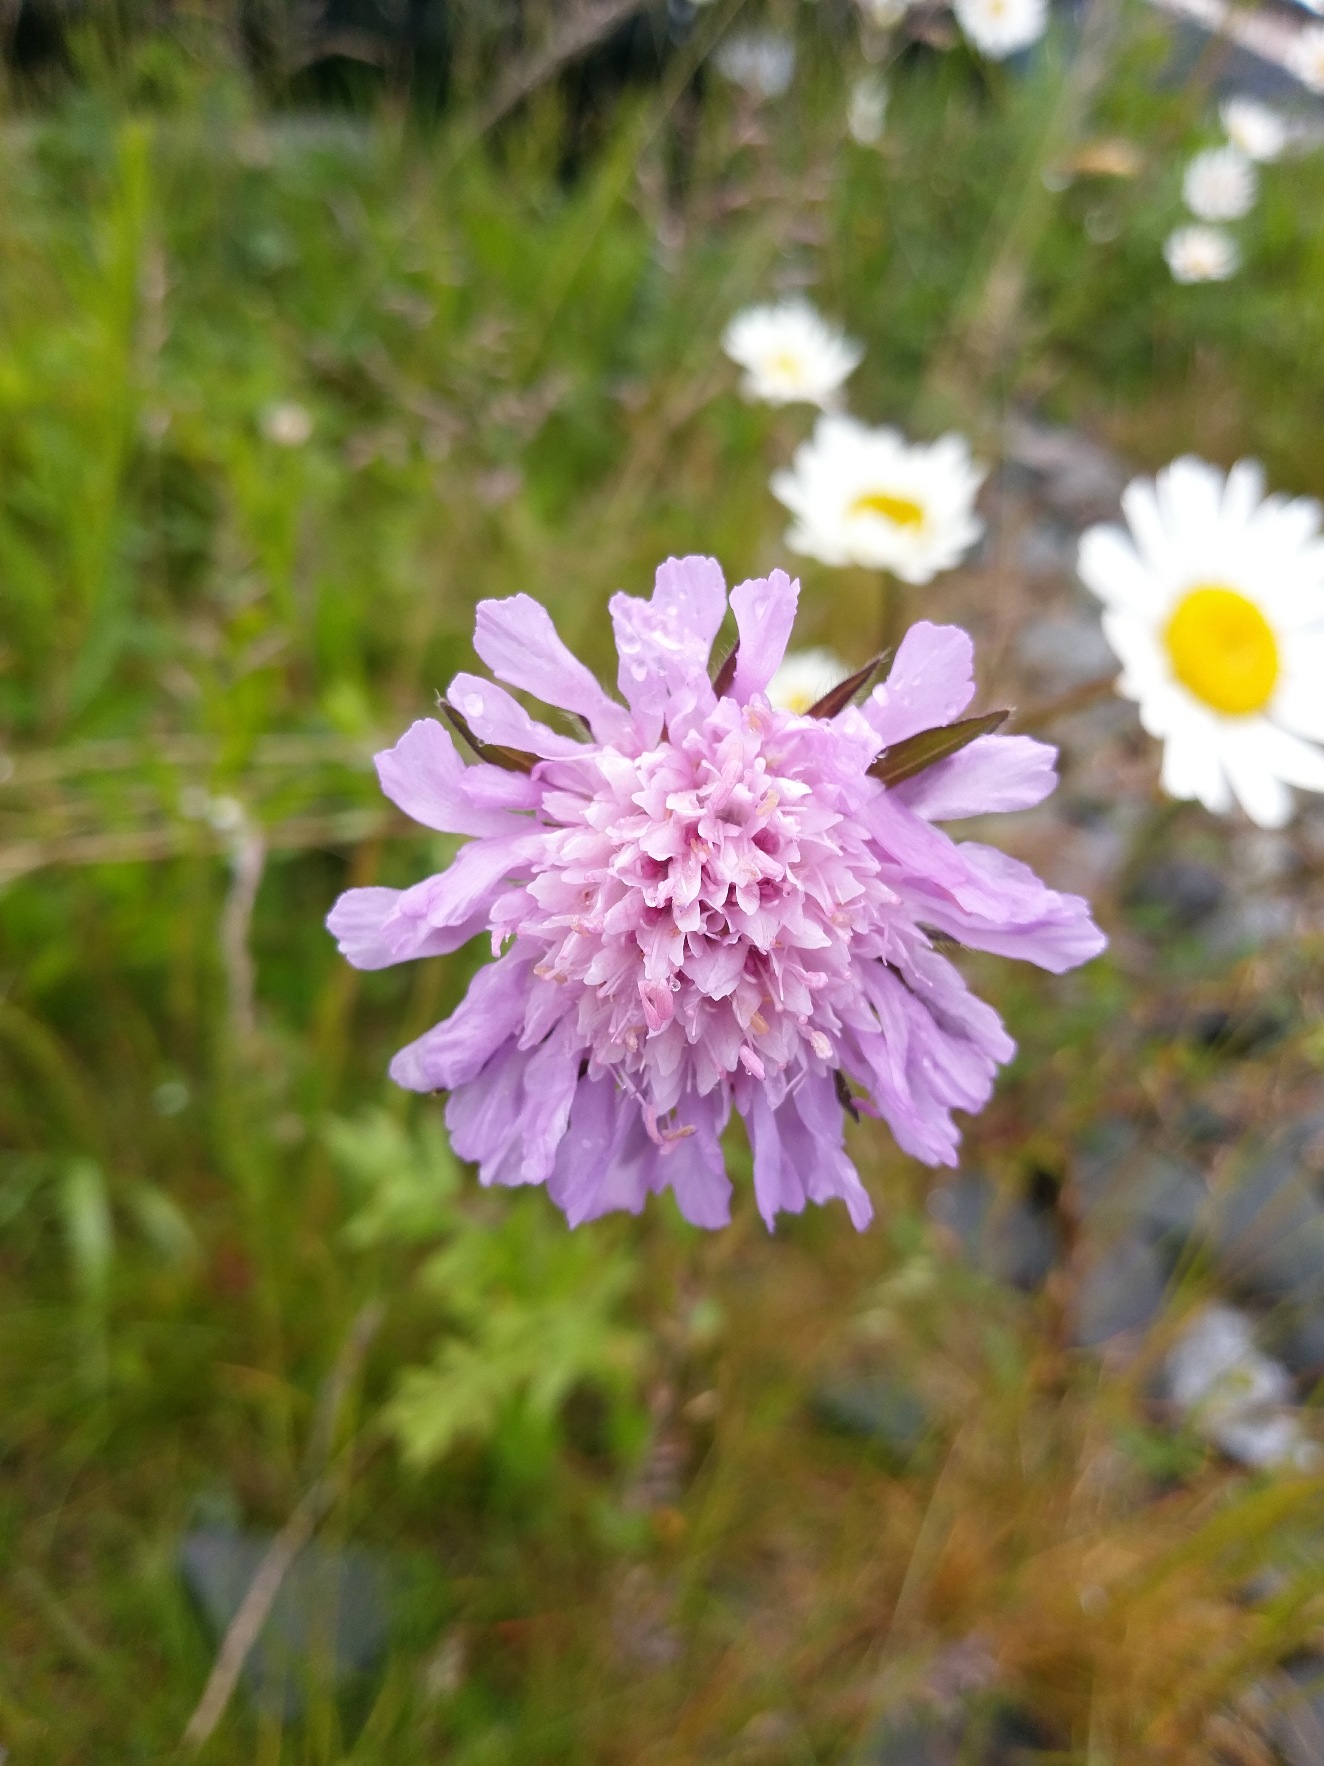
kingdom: Plantae
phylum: Tracheophyta
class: Magnoliopsida
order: Dipsacales
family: Caprifoliaceae
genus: Knautia
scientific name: Knautia arvensis
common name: Blåhat
